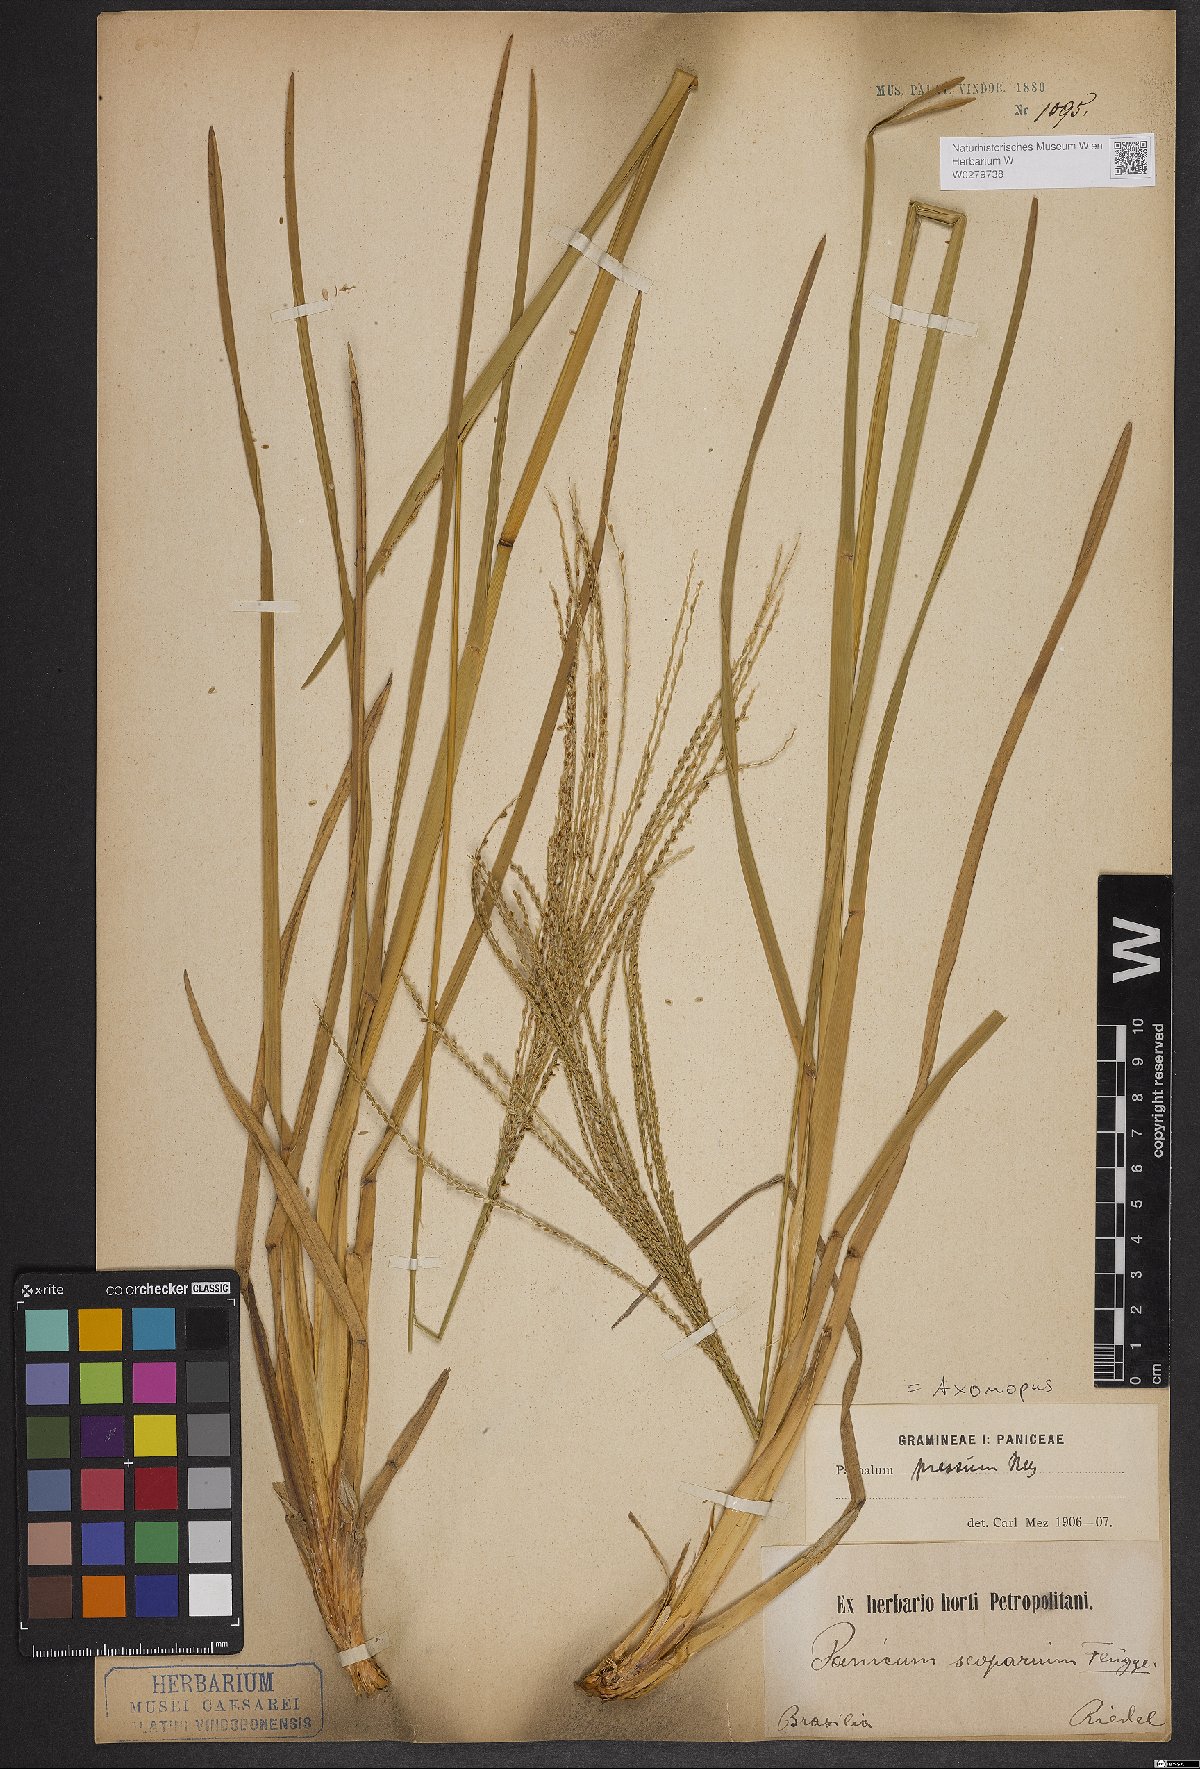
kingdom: Plantae
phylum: Tracheophyta
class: Liliopsida
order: Poales
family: Poaceae
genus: Axonopus
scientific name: Axonopus pressus
